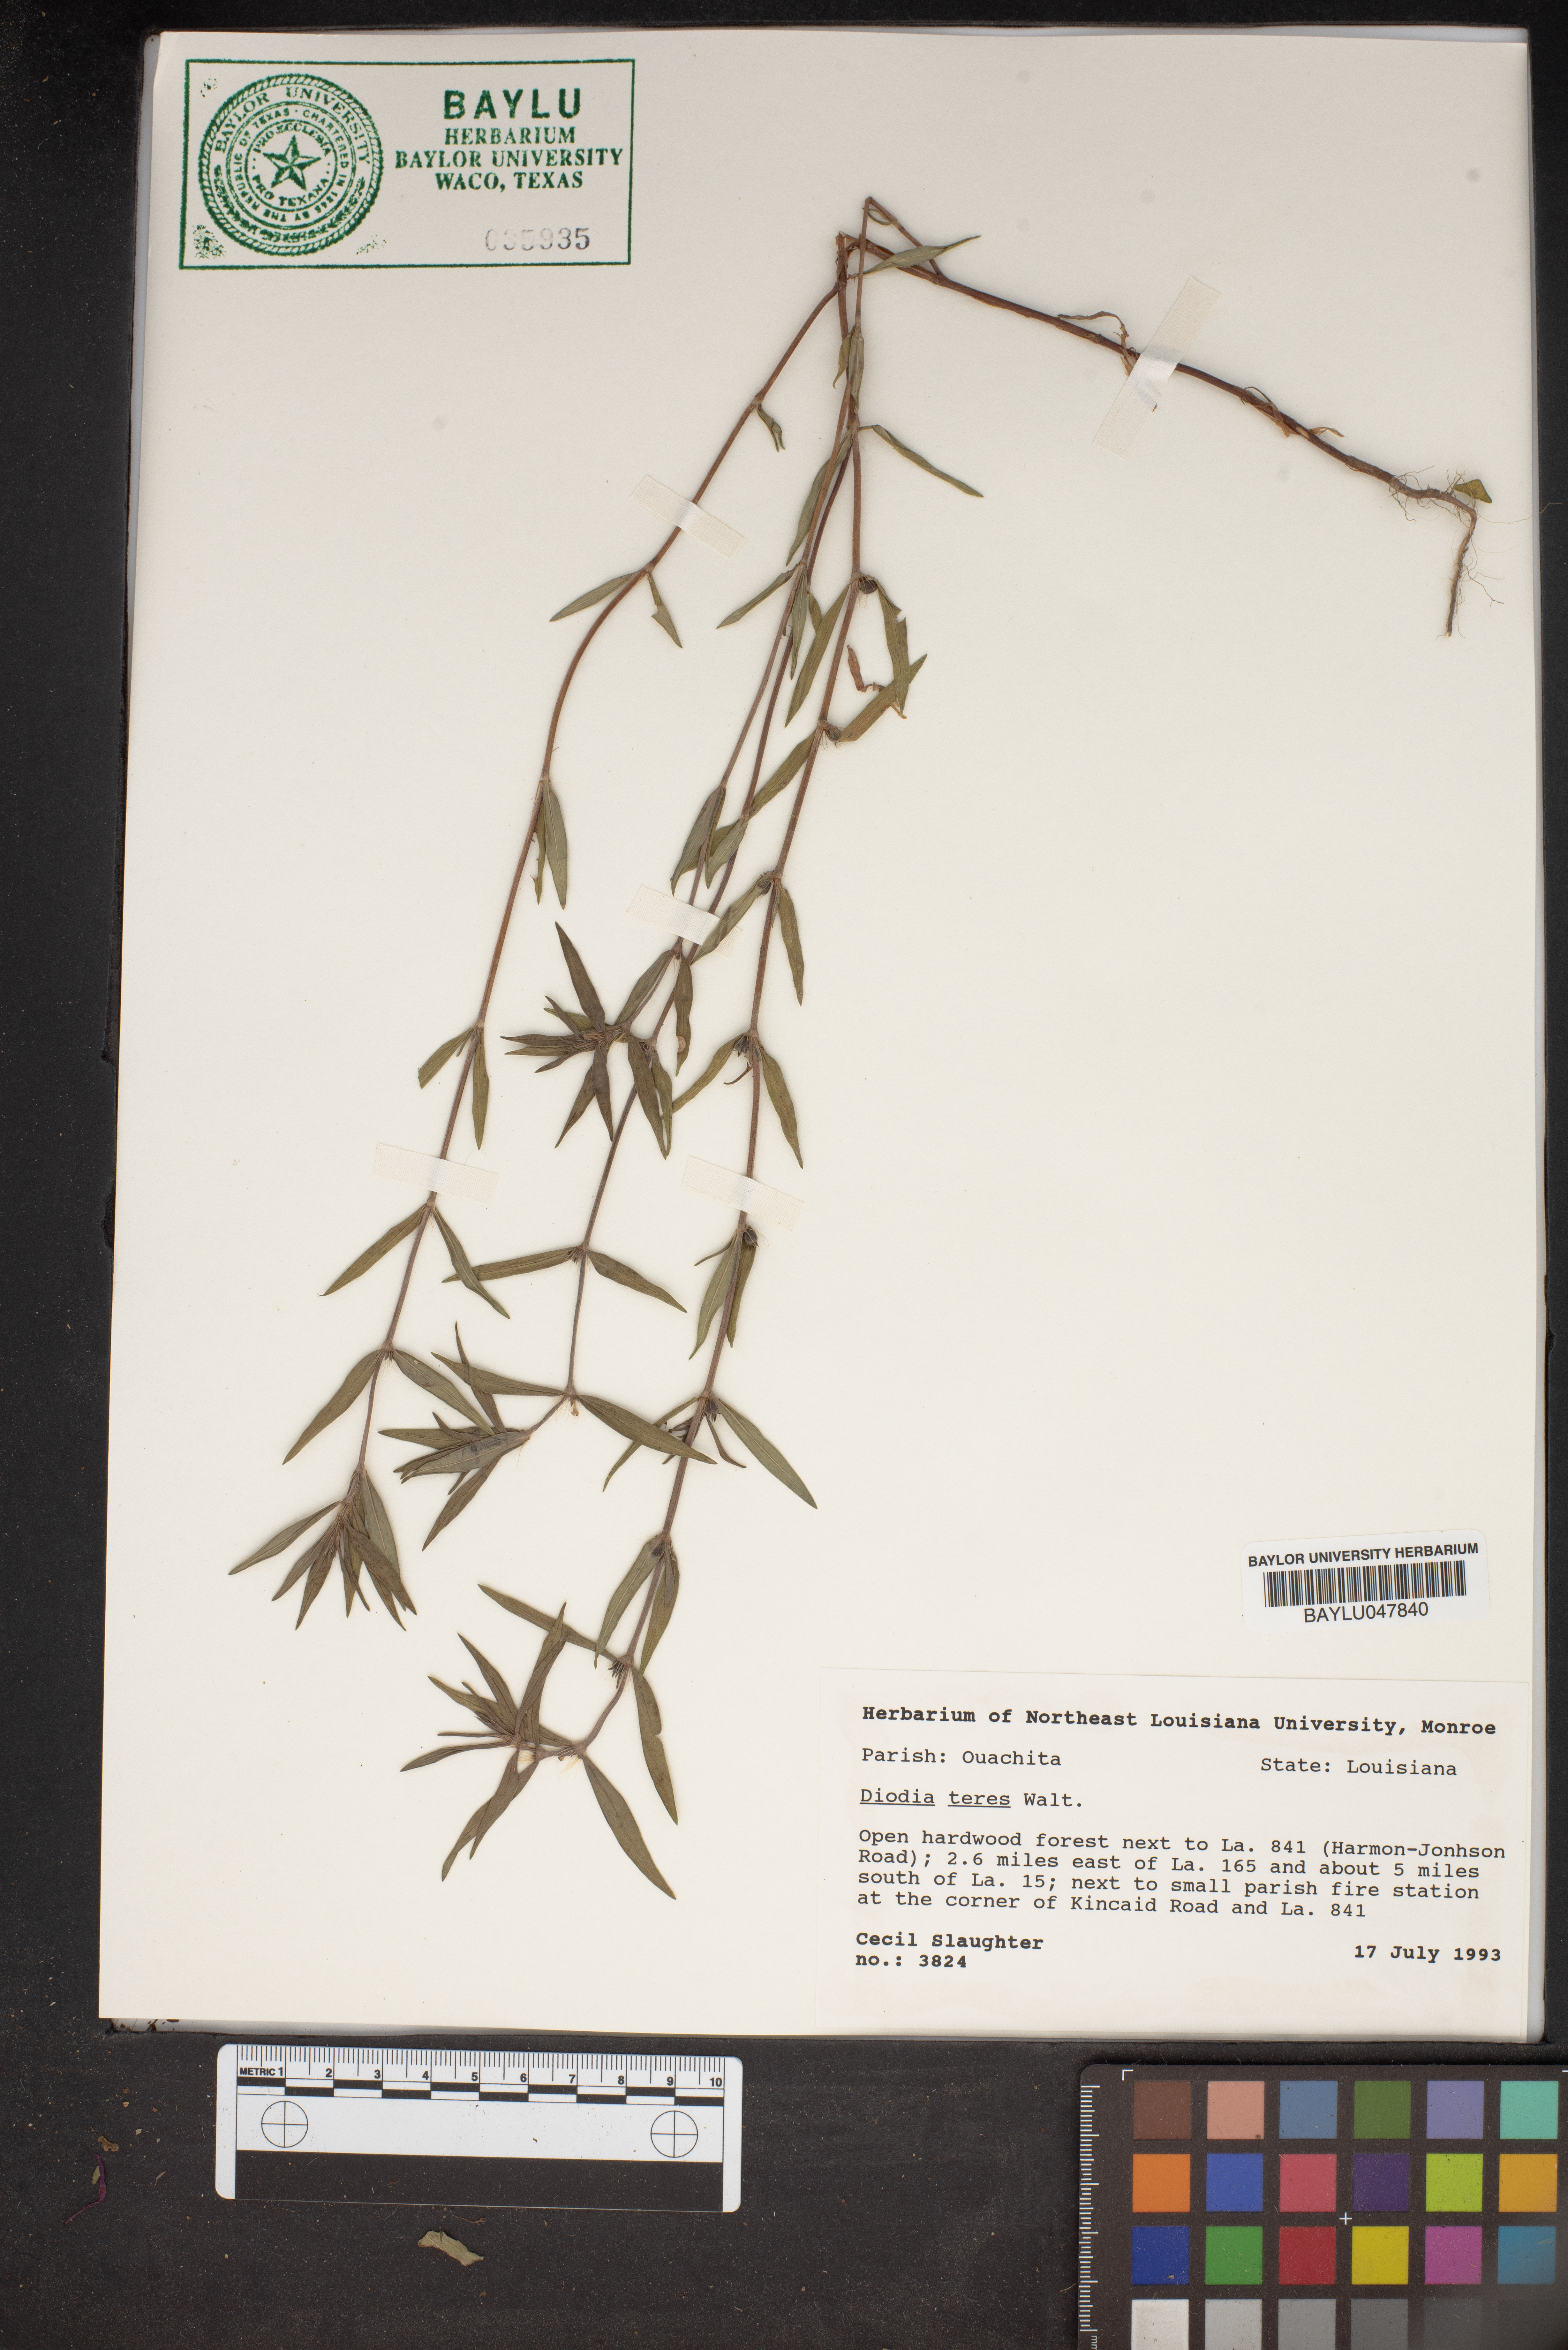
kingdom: Plantae
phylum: Tracheophyta
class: Magnoliopsida
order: Gentianales
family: Rubiaceae
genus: Hexasepalum
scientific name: Hexasepalum teres
